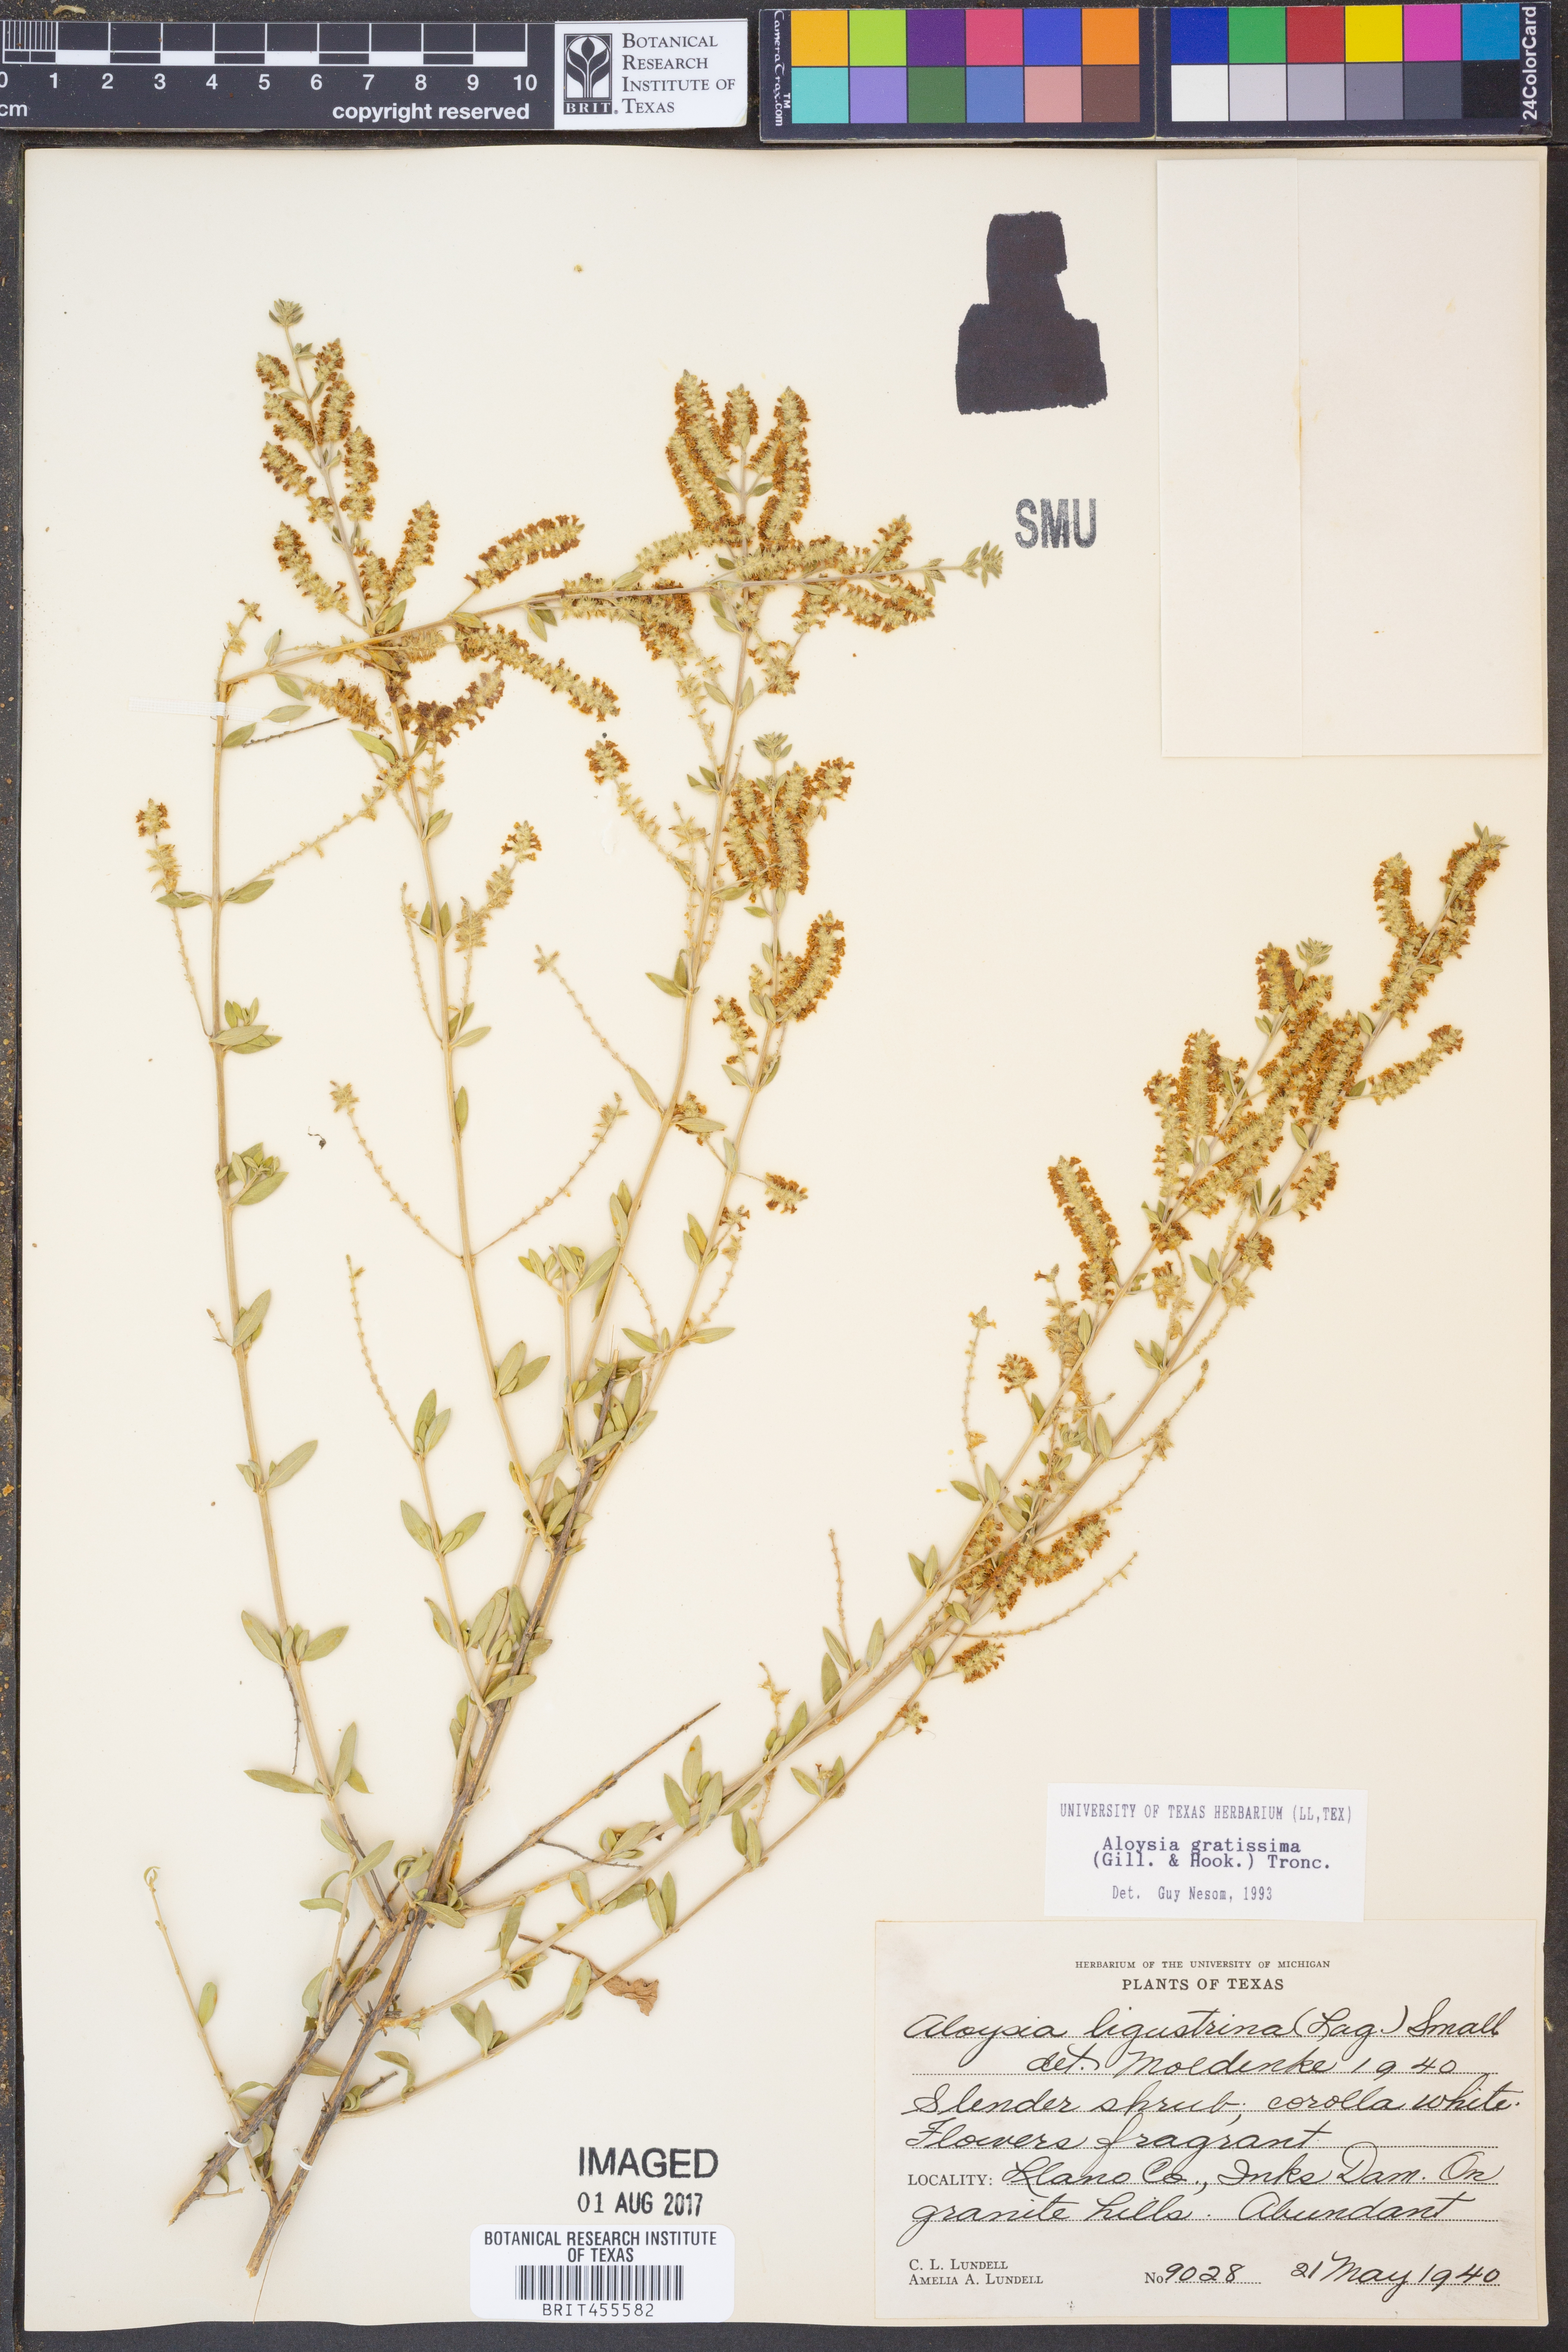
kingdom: Plantae
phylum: Tracheophyta
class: Magnoliopsida
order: Lamiales
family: Verbenaceae
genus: Aloysia
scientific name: Aloysia gratissima
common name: Common bee-brush
